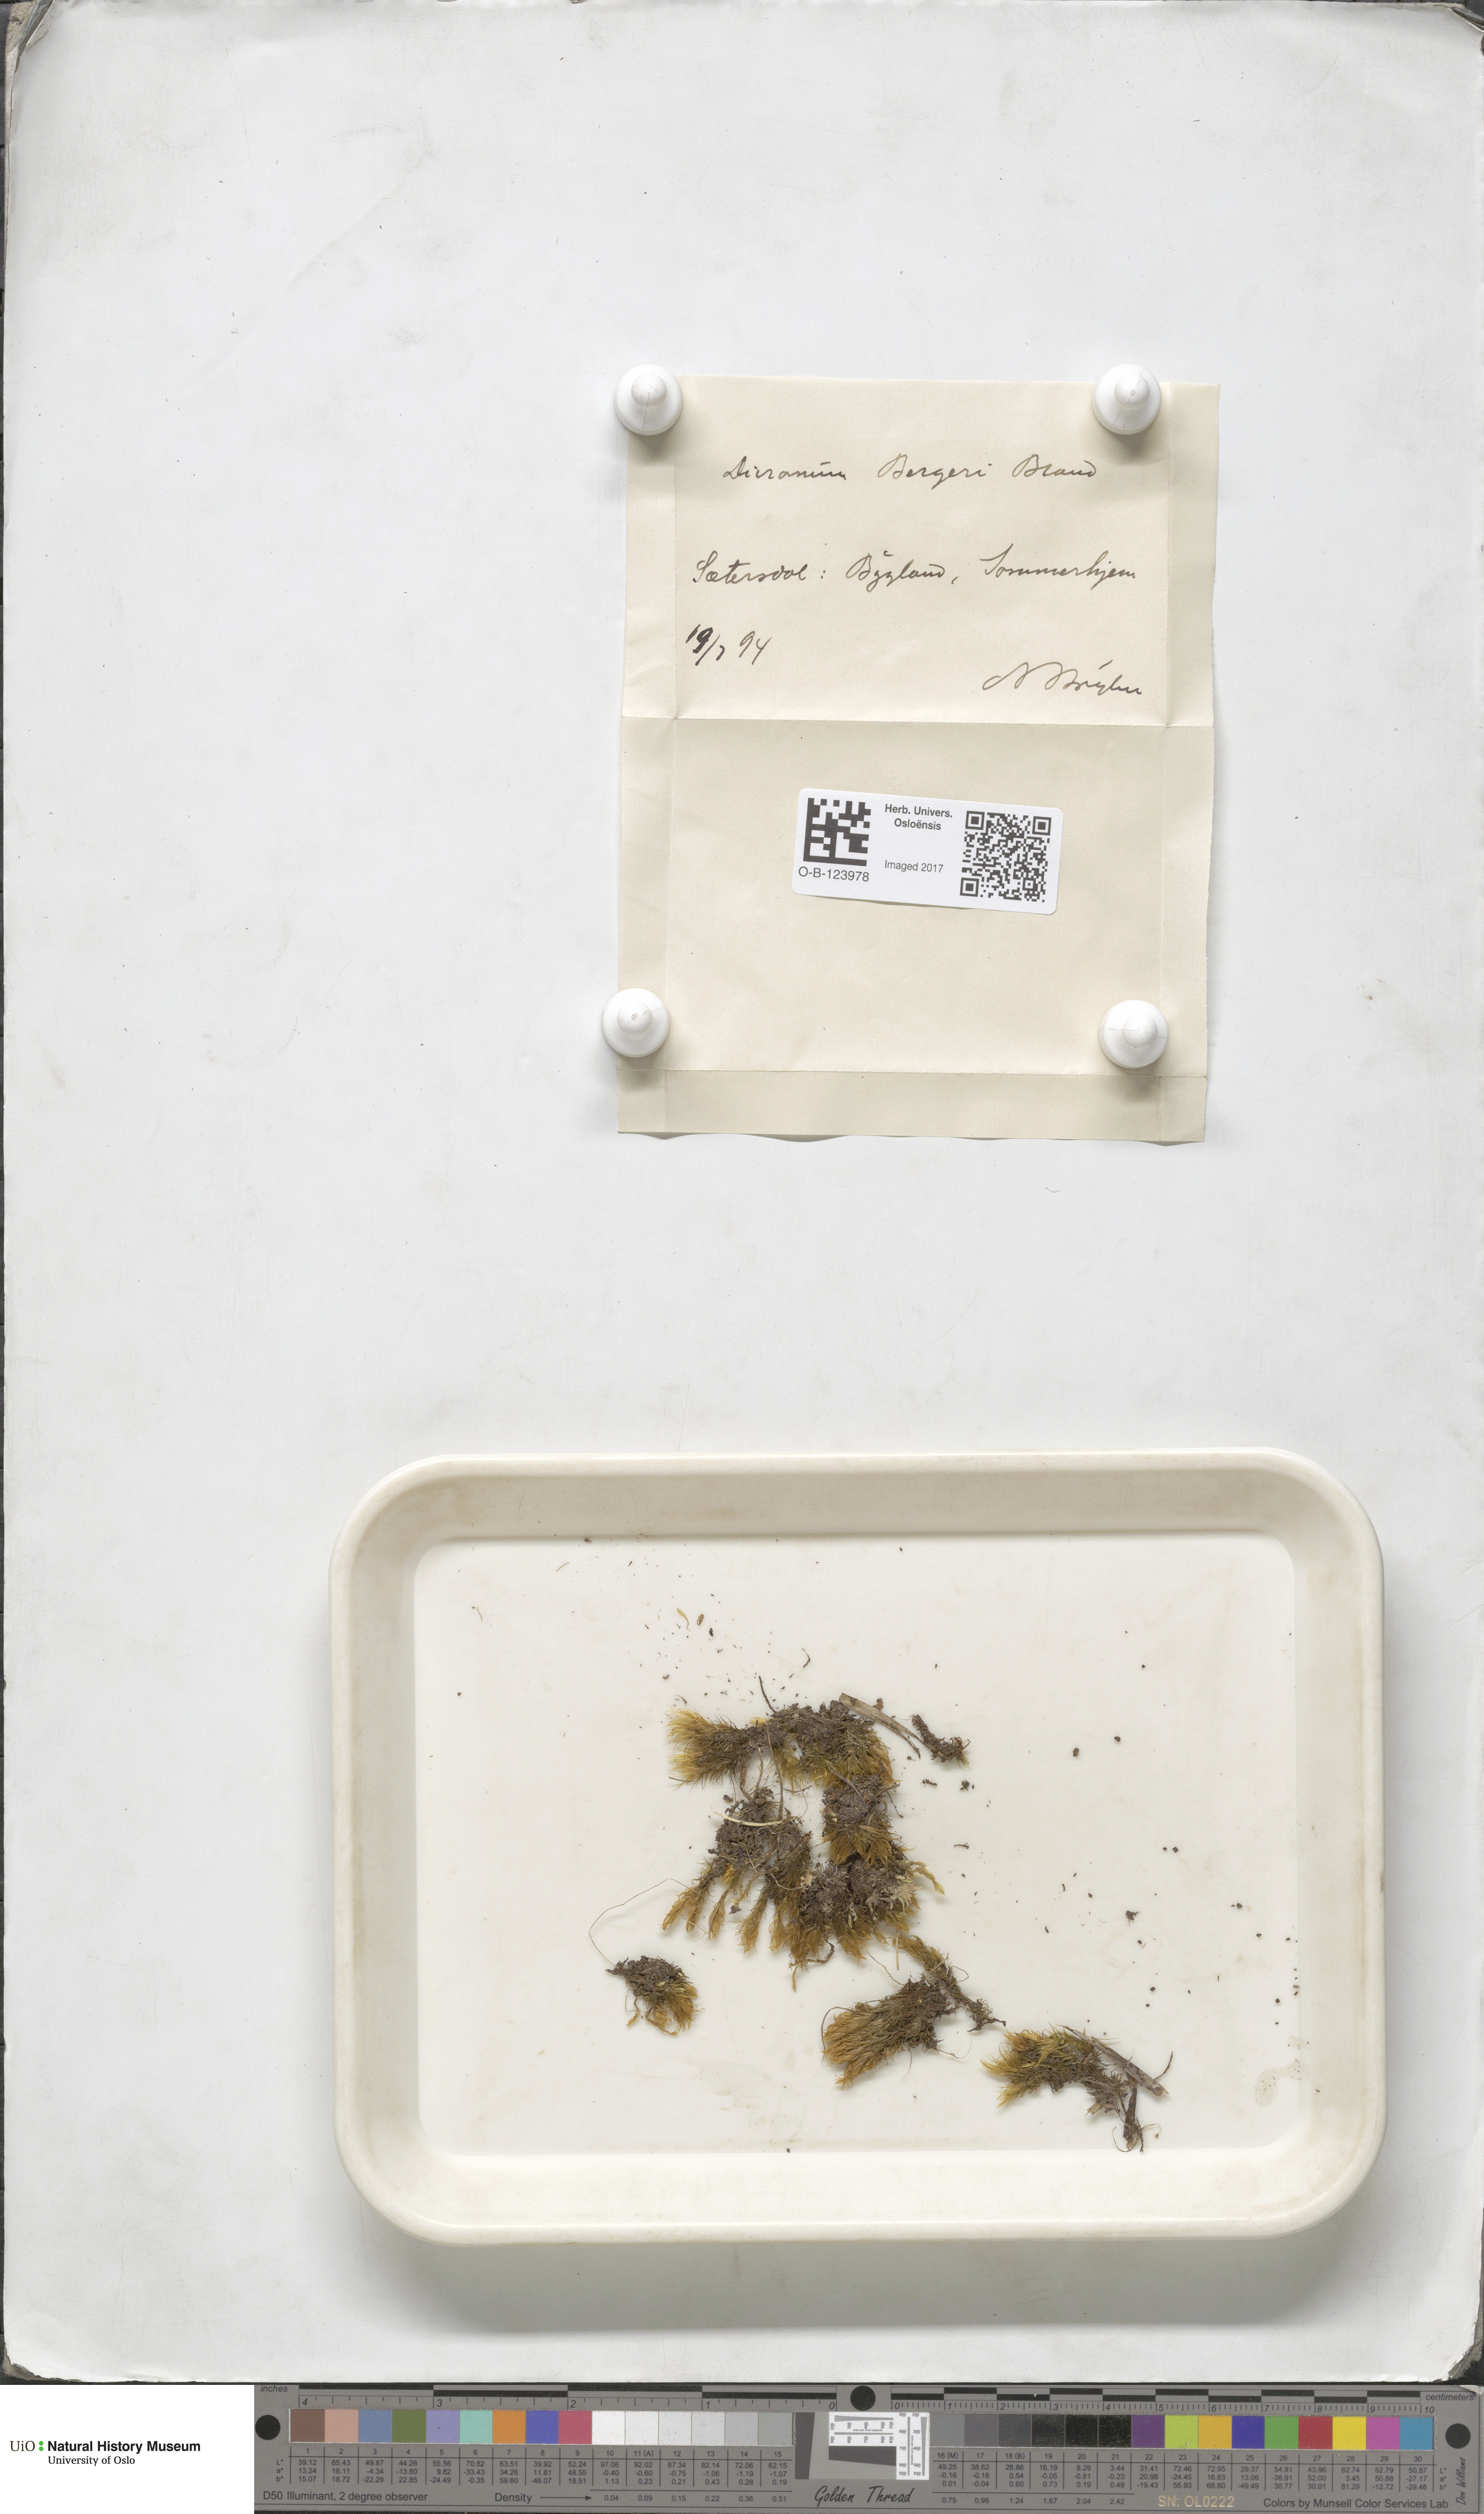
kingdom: Plantae
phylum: Bryophyta
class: Bryopsida
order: Dicranales
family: Dicranaceae
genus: Dicranum
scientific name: Dicranum undulatum
